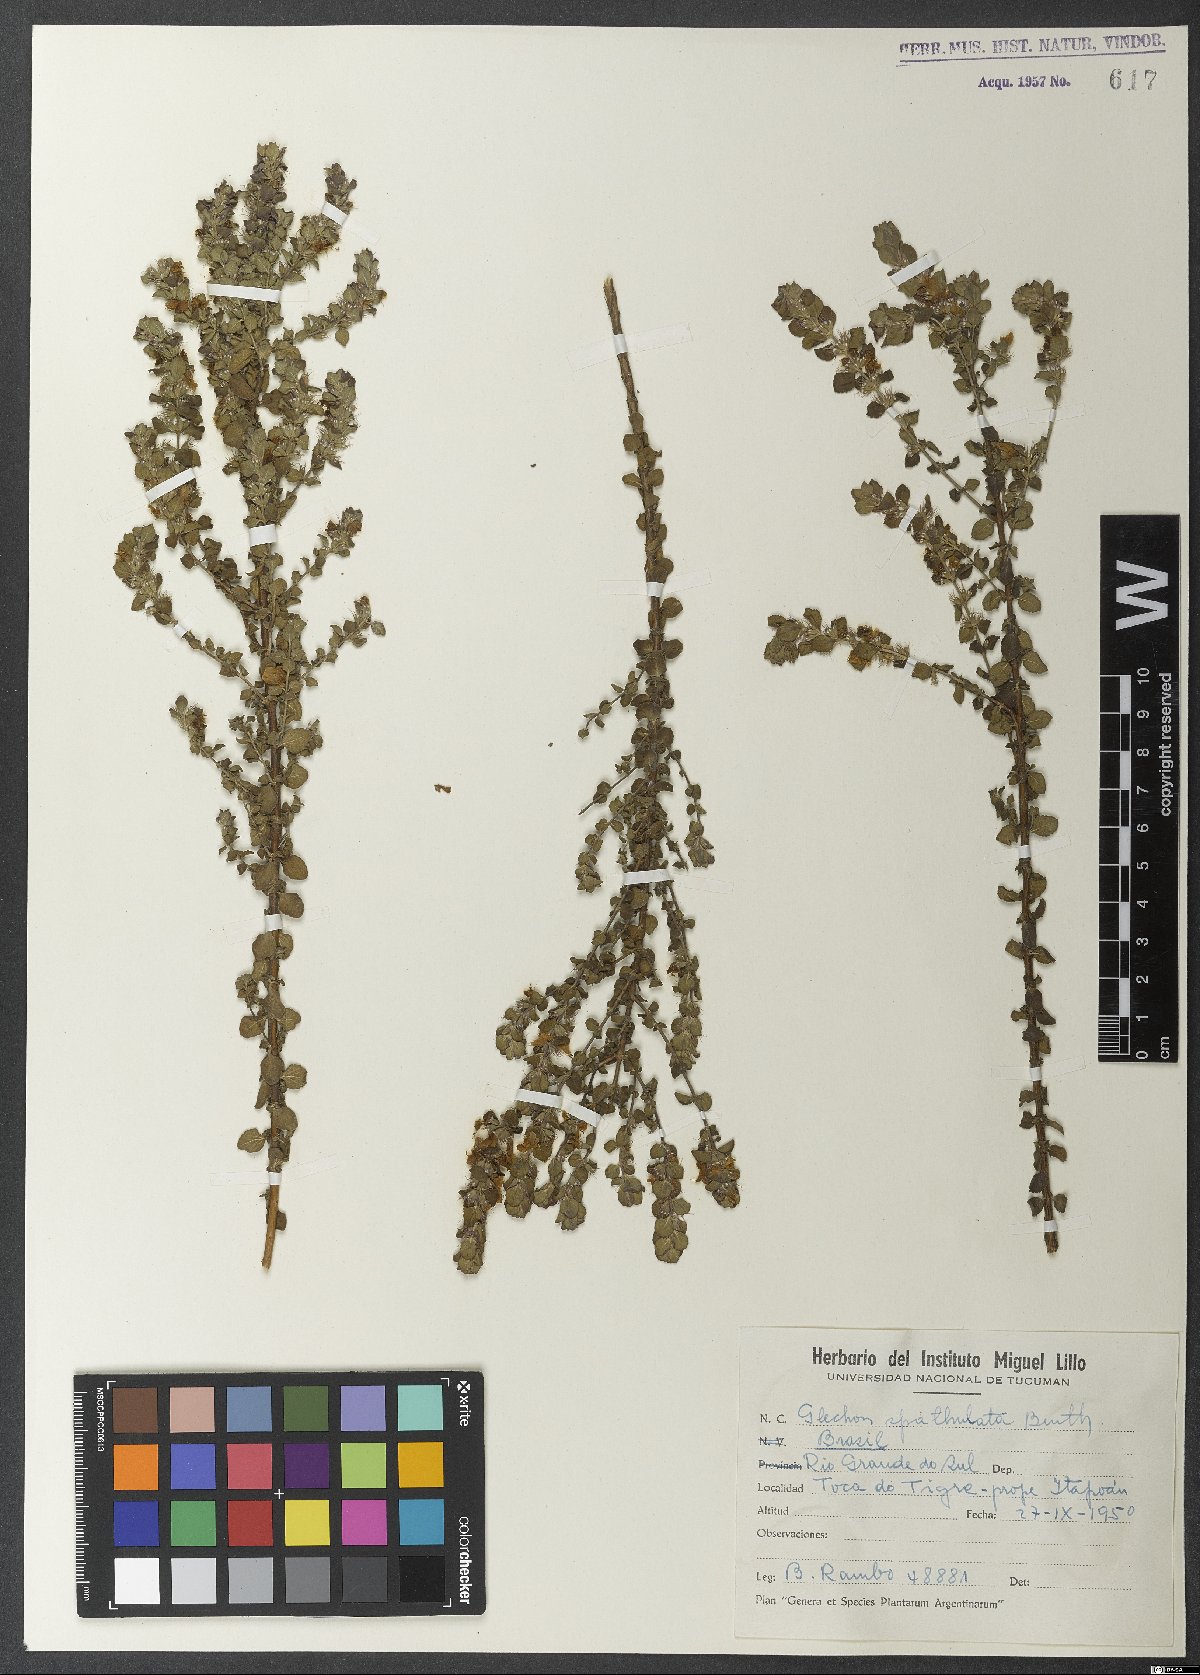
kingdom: Plantae
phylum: Tracheophyta
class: Magnoliopsida
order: Lamiales
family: Lamiaceae
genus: Glechon
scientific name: Glechon thymoides
